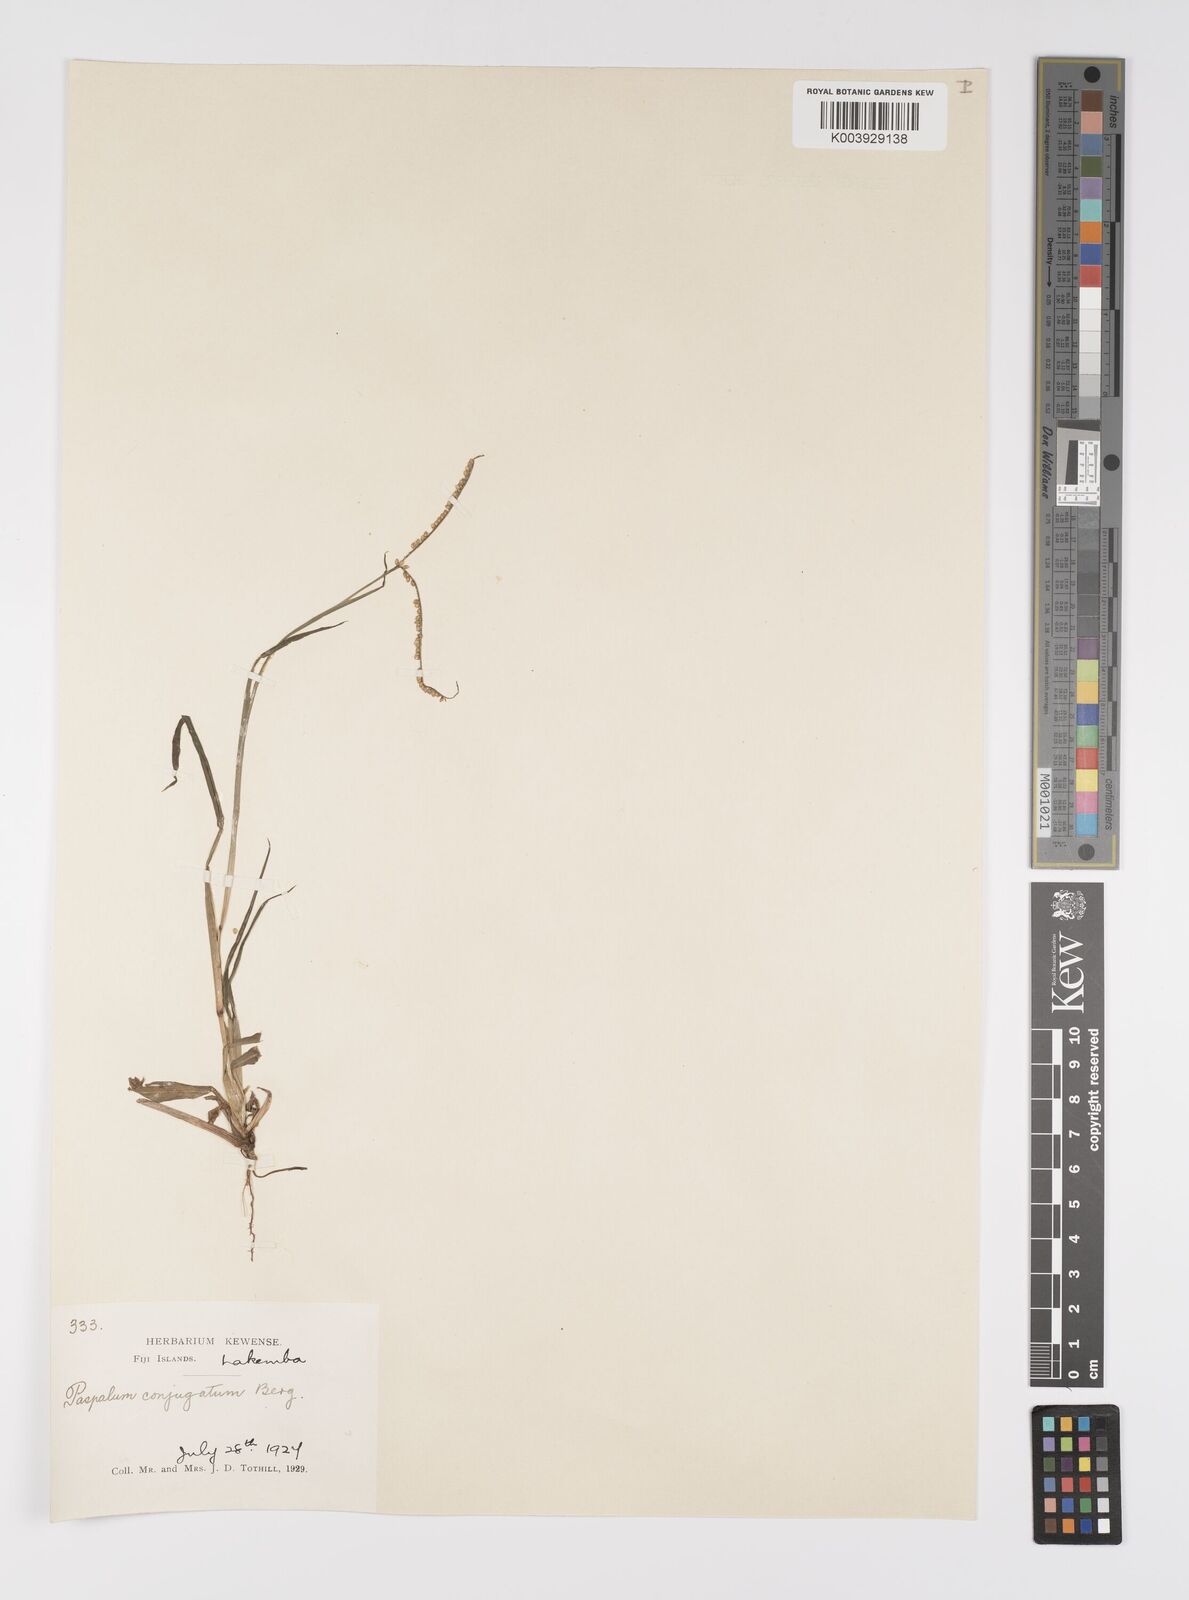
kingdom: Plantae
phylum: Tracheophyta
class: Liliopsida
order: Poales
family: Poaceae
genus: Paspalum
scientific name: Paspalum conjugatum
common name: Hilograss
